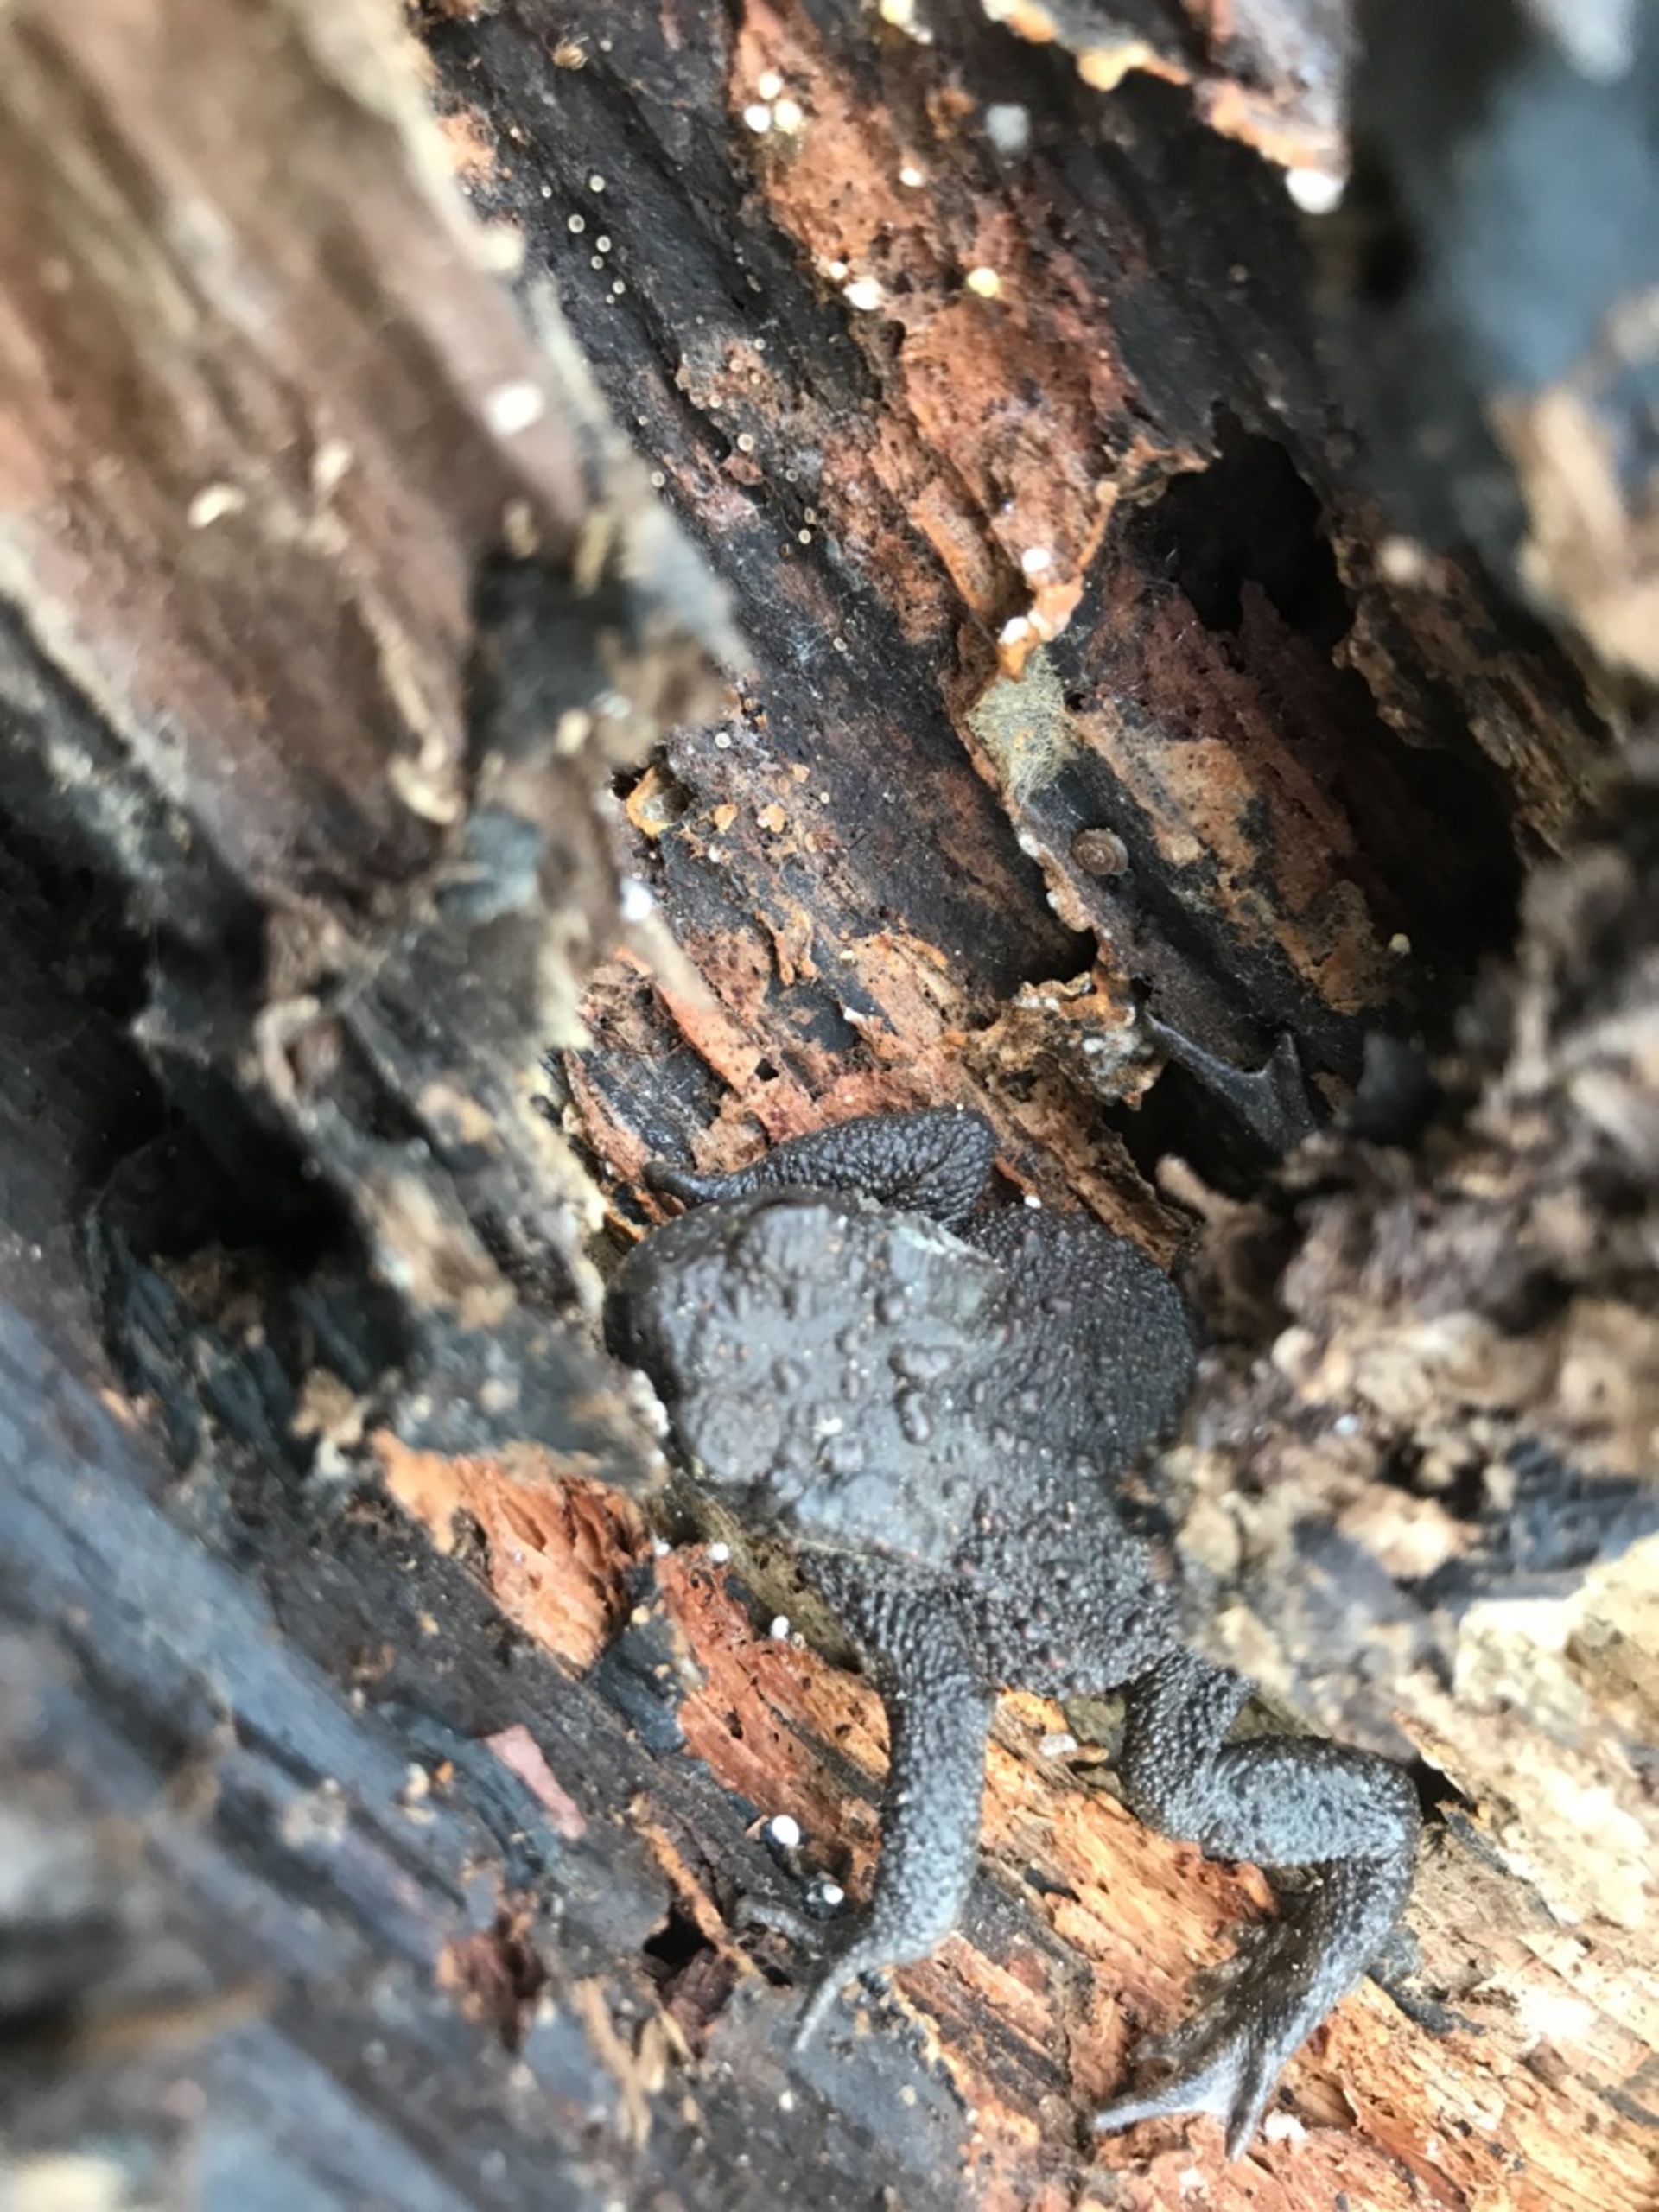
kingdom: Animalia
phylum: Chordata
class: Amphibia
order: Anura
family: Bufonidae
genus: Bufo
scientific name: Bufo bufo
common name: Skrubtudse
